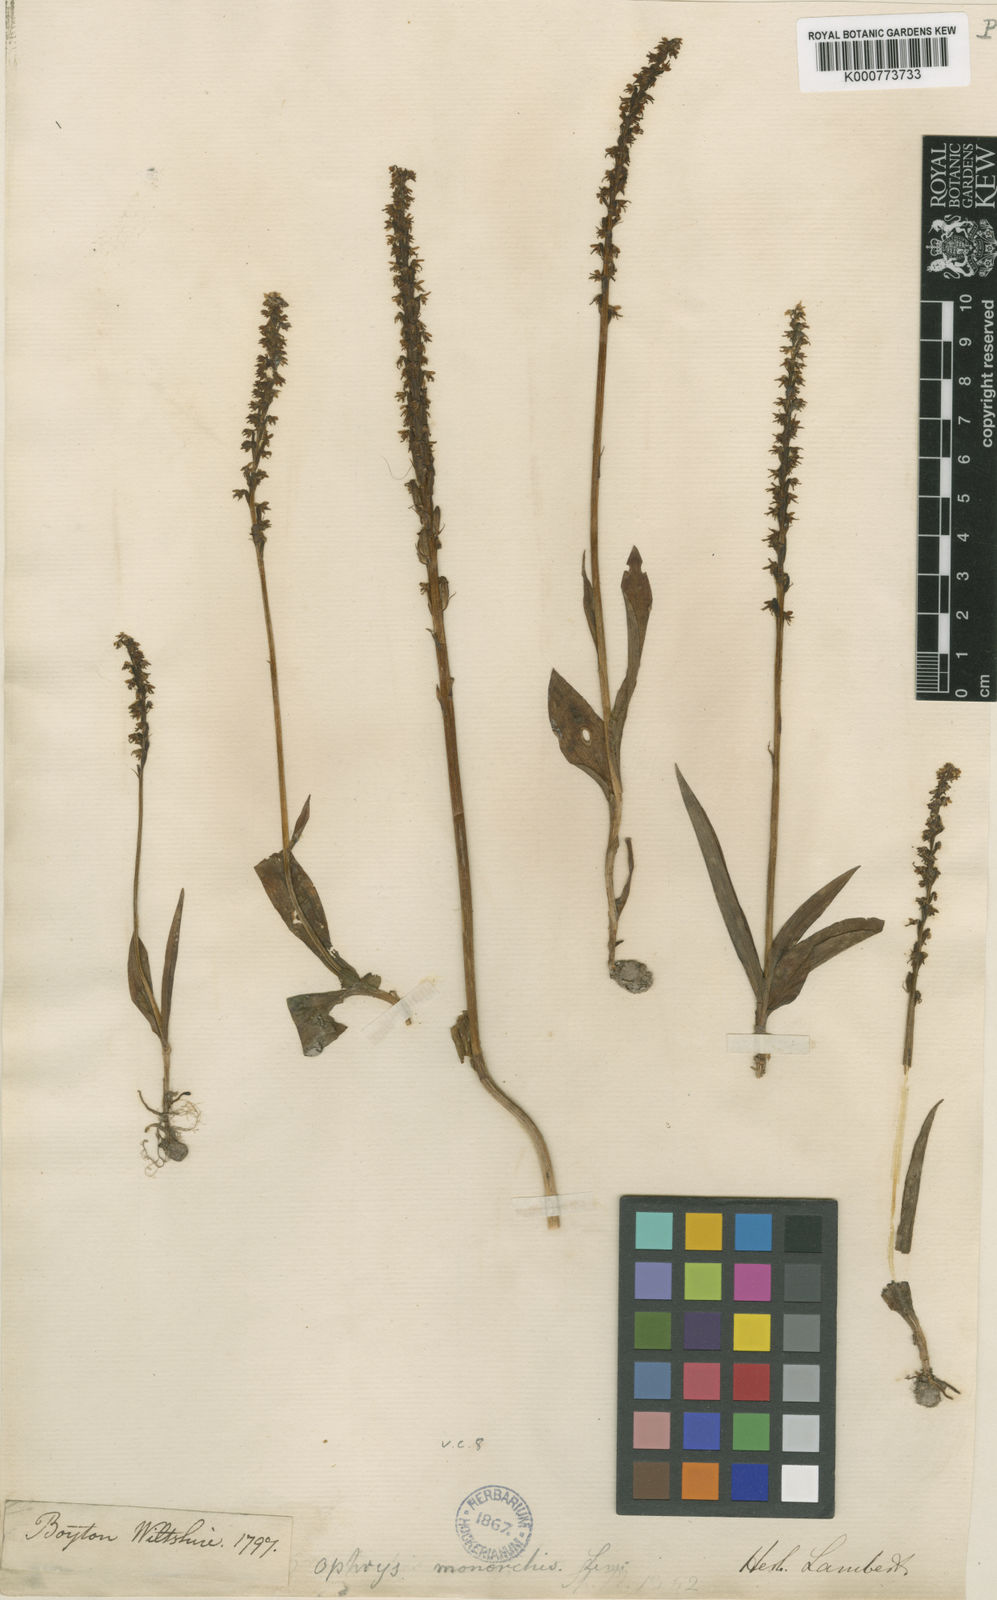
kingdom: Plantae
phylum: Tracheophyta
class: Liliopsida
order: Asparagales
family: Orchidaceae
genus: Herminium
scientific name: Herminium monorchis
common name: Musk orchid
